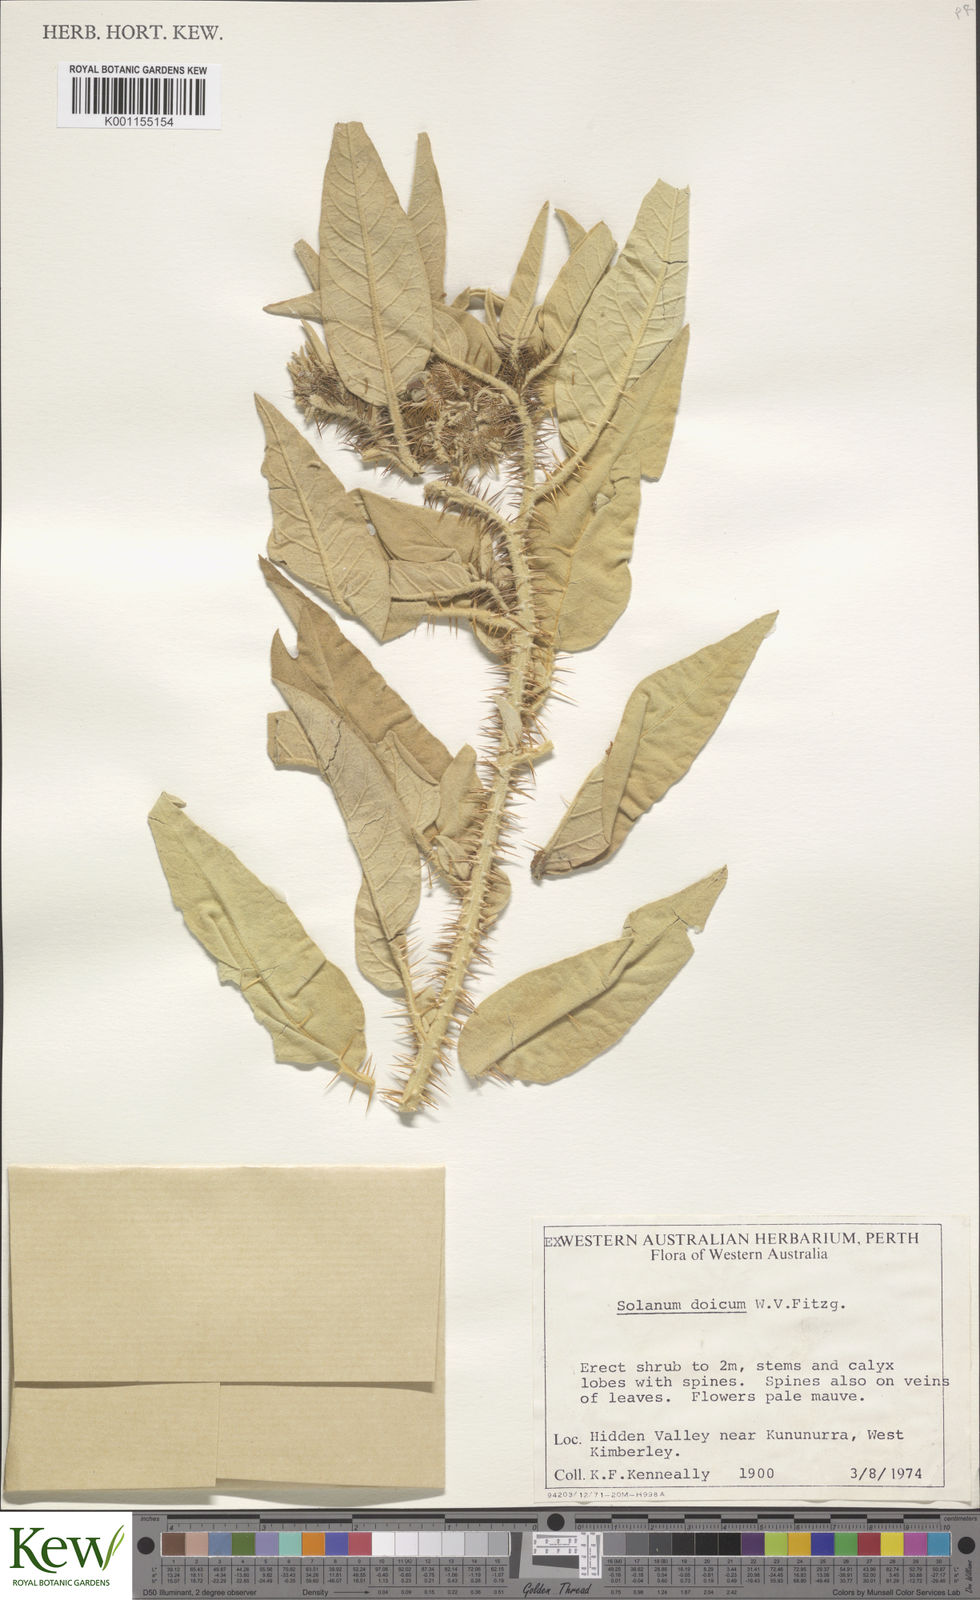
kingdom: Plantae
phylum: Tracheophyta
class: Magnoliopsida
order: Solanales
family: Solanaceae
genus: Solanum
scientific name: Solanum dioicum
